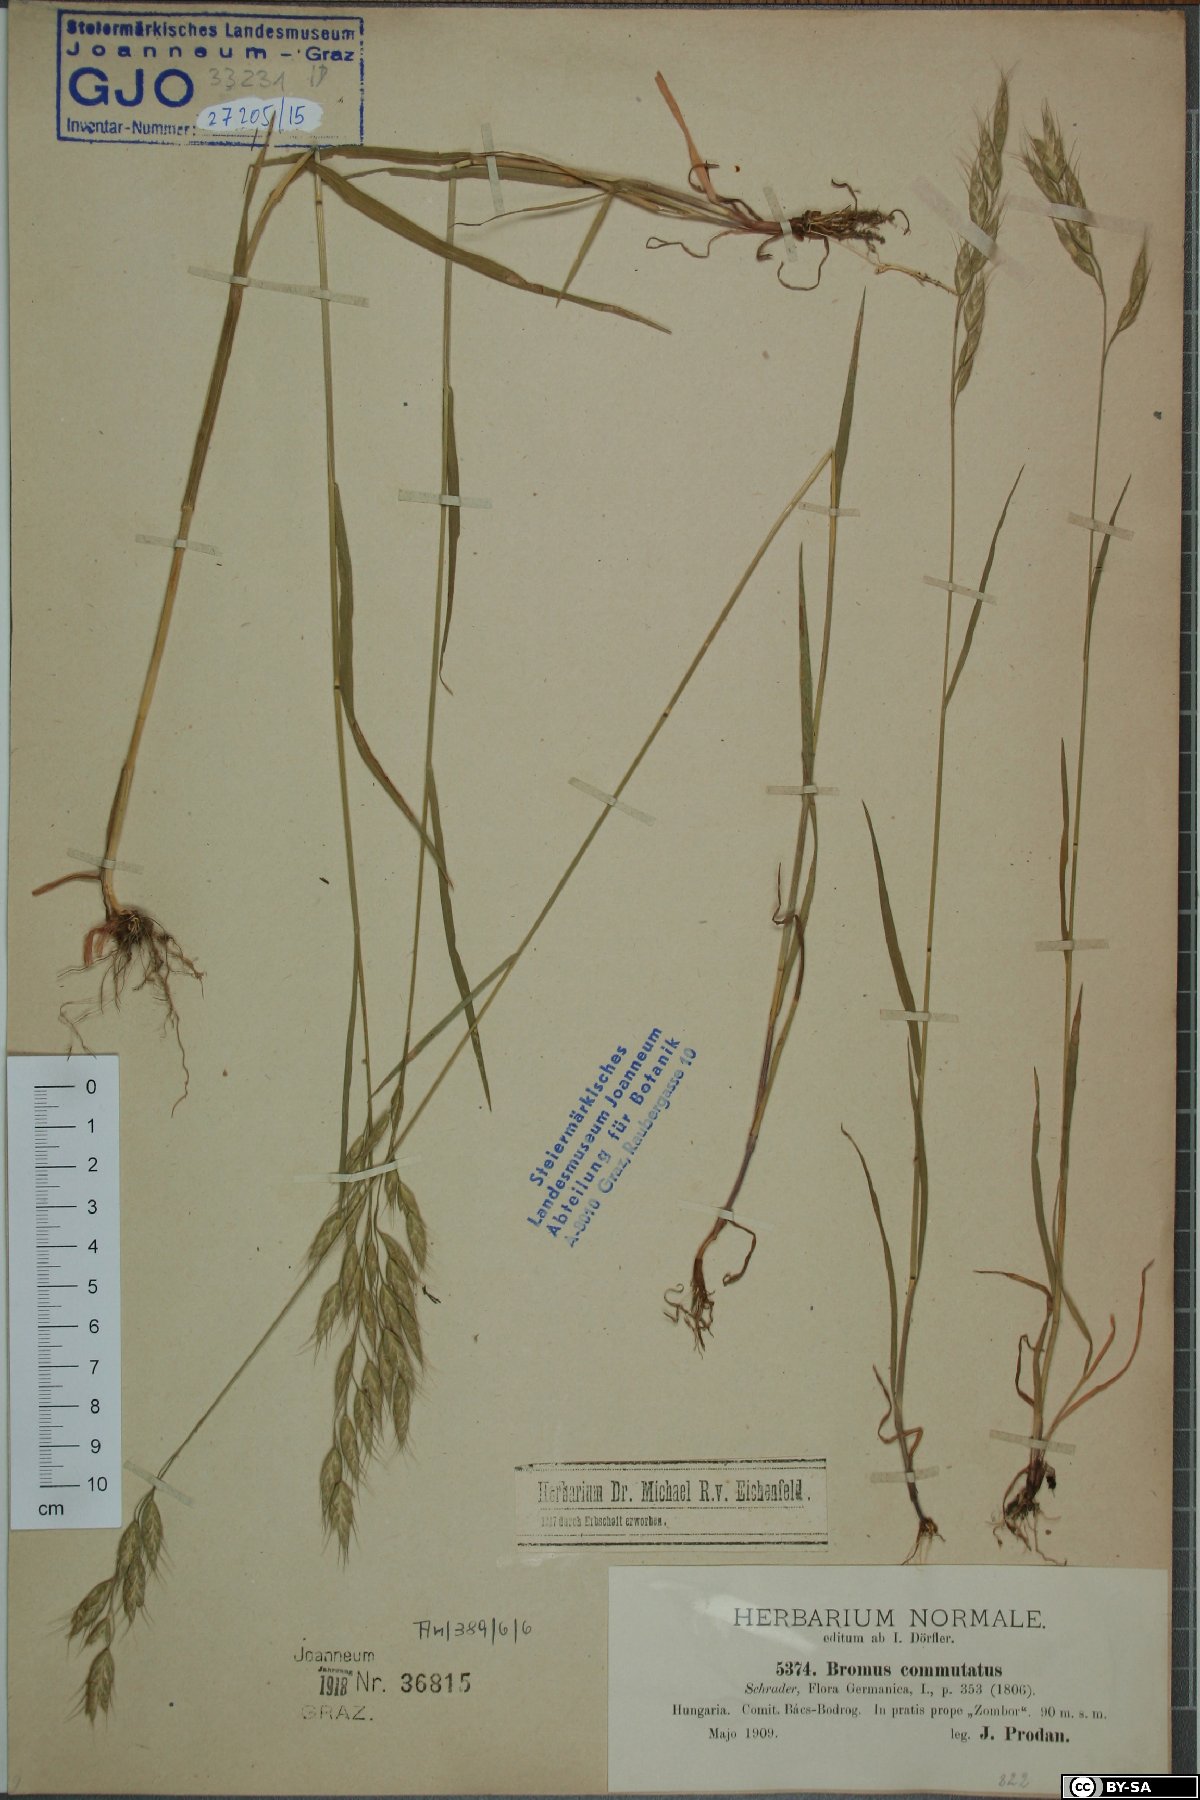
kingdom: Plantae
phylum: Tracheophyta
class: Liliopsida
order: Poales
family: Poaceae
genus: Bromus
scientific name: Bromus commutatus
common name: Meadow brome
